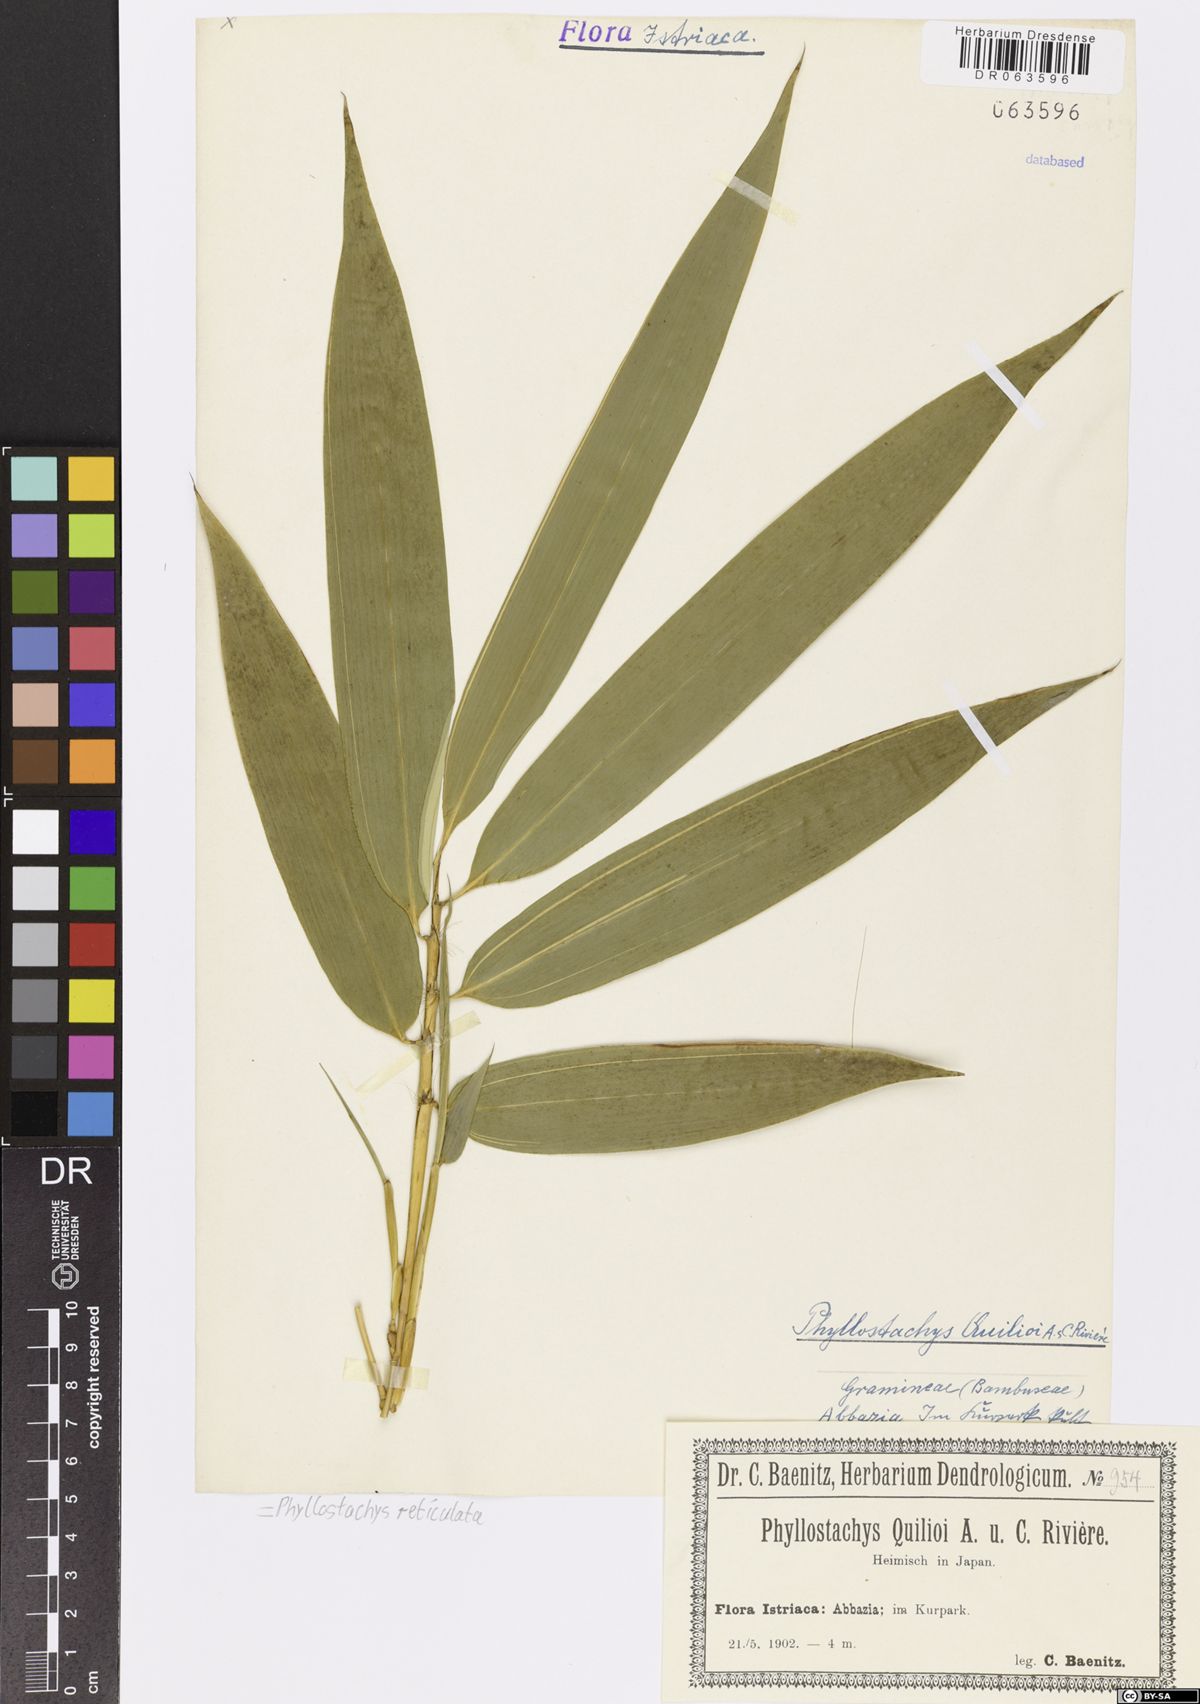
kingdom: Plantae
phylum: Tracheophyta
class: Liliopsida
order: Poales
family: Poaceae
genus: Phyllostachys
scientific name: Phyllostachys reticulata
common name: Bamboo
